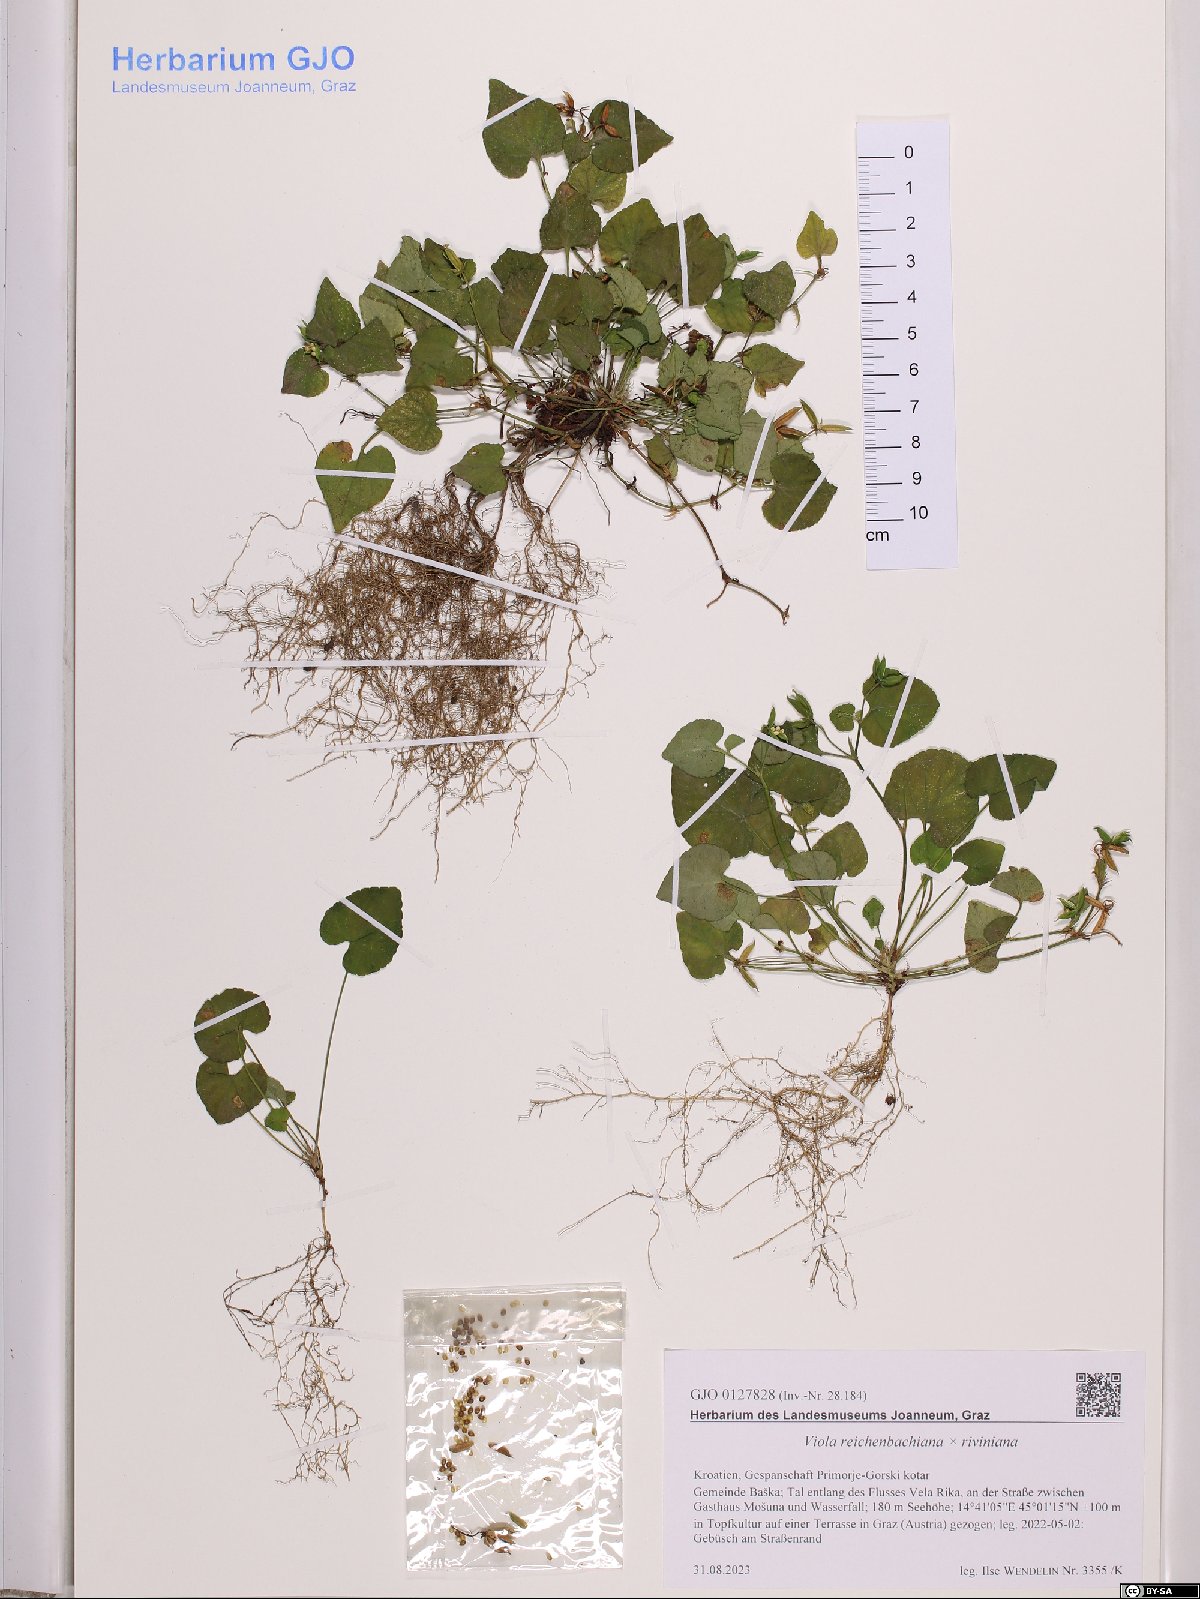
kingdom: Plantae
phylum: Tracheophyta
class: Magnoliopsida
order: Malpighiales
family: Violaceae
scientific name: Violaceae
